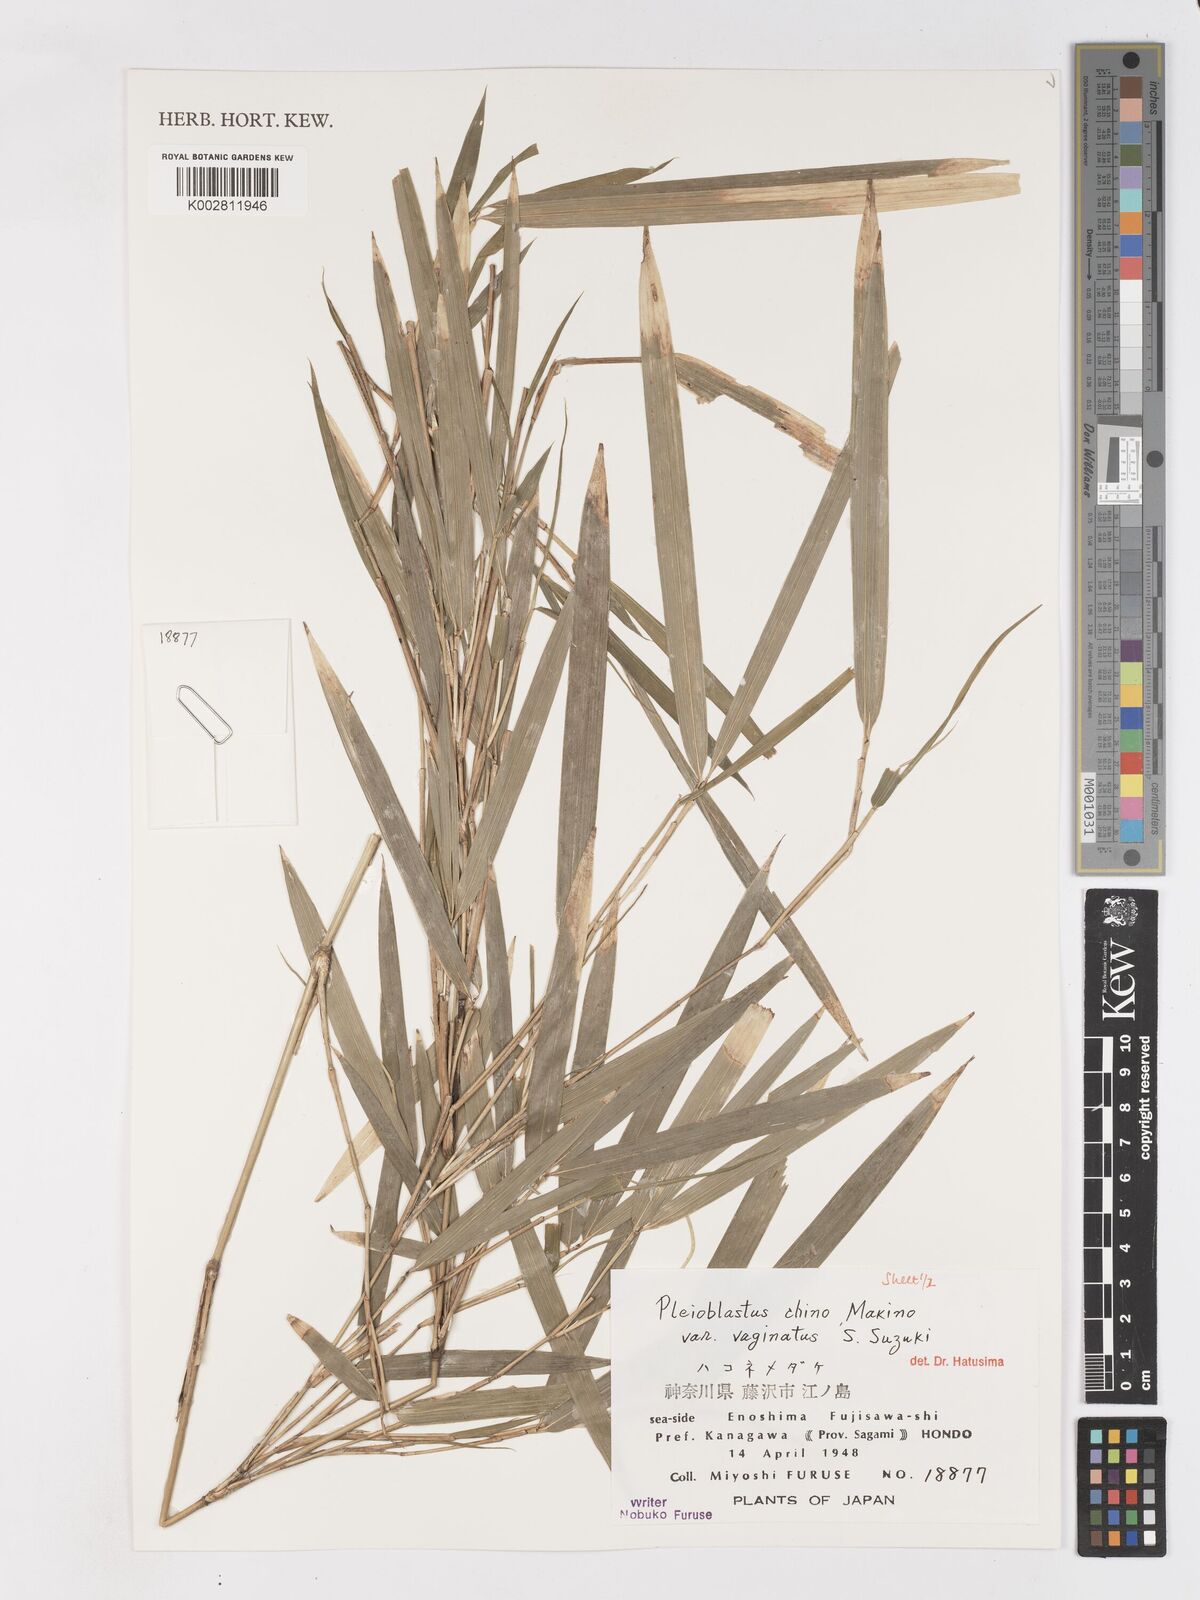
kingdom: Plantae
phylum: Tracheophyta
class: Liliopsida
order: Poales
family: Poaceae
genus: Pleioblastus
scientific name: Pleioblastus argenteostriatus
